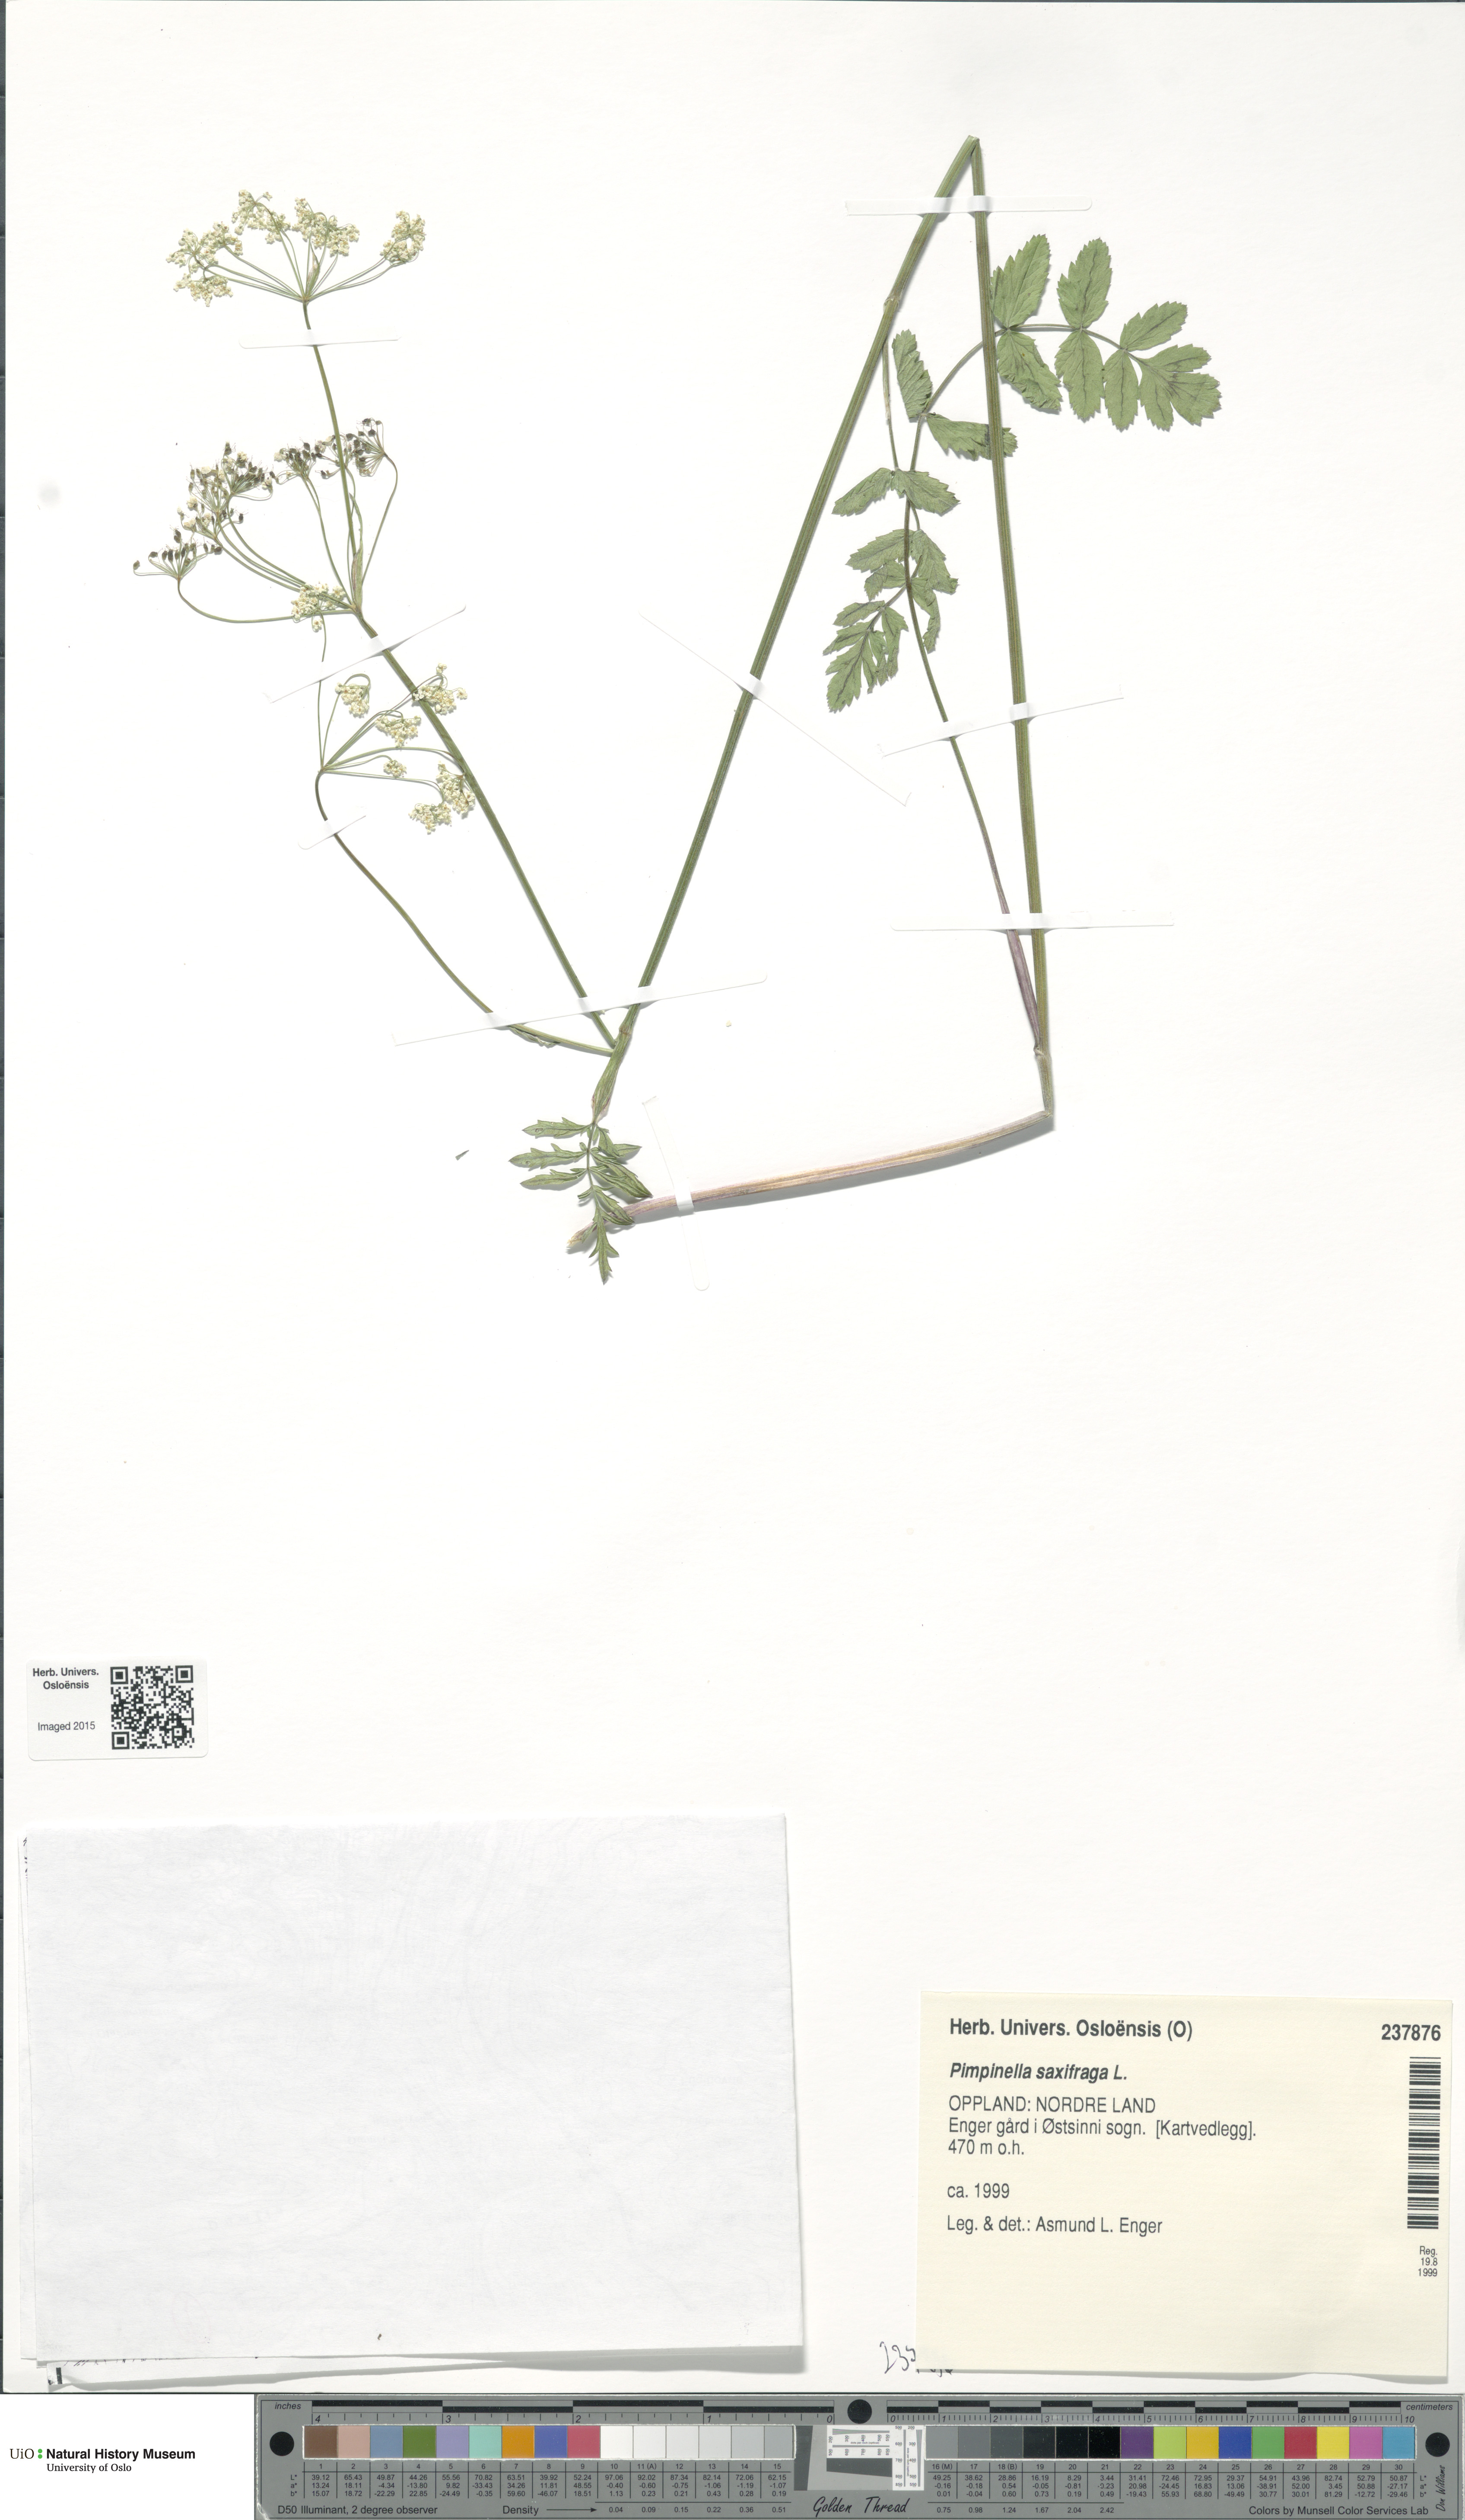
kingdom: Plantae
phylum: Tracheophyta
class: Magnoliopsida
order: Apiales
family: Apiaceae
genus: Pimpinella
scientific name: Pimpinella saxifraga
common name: Burnet-saxifrage
